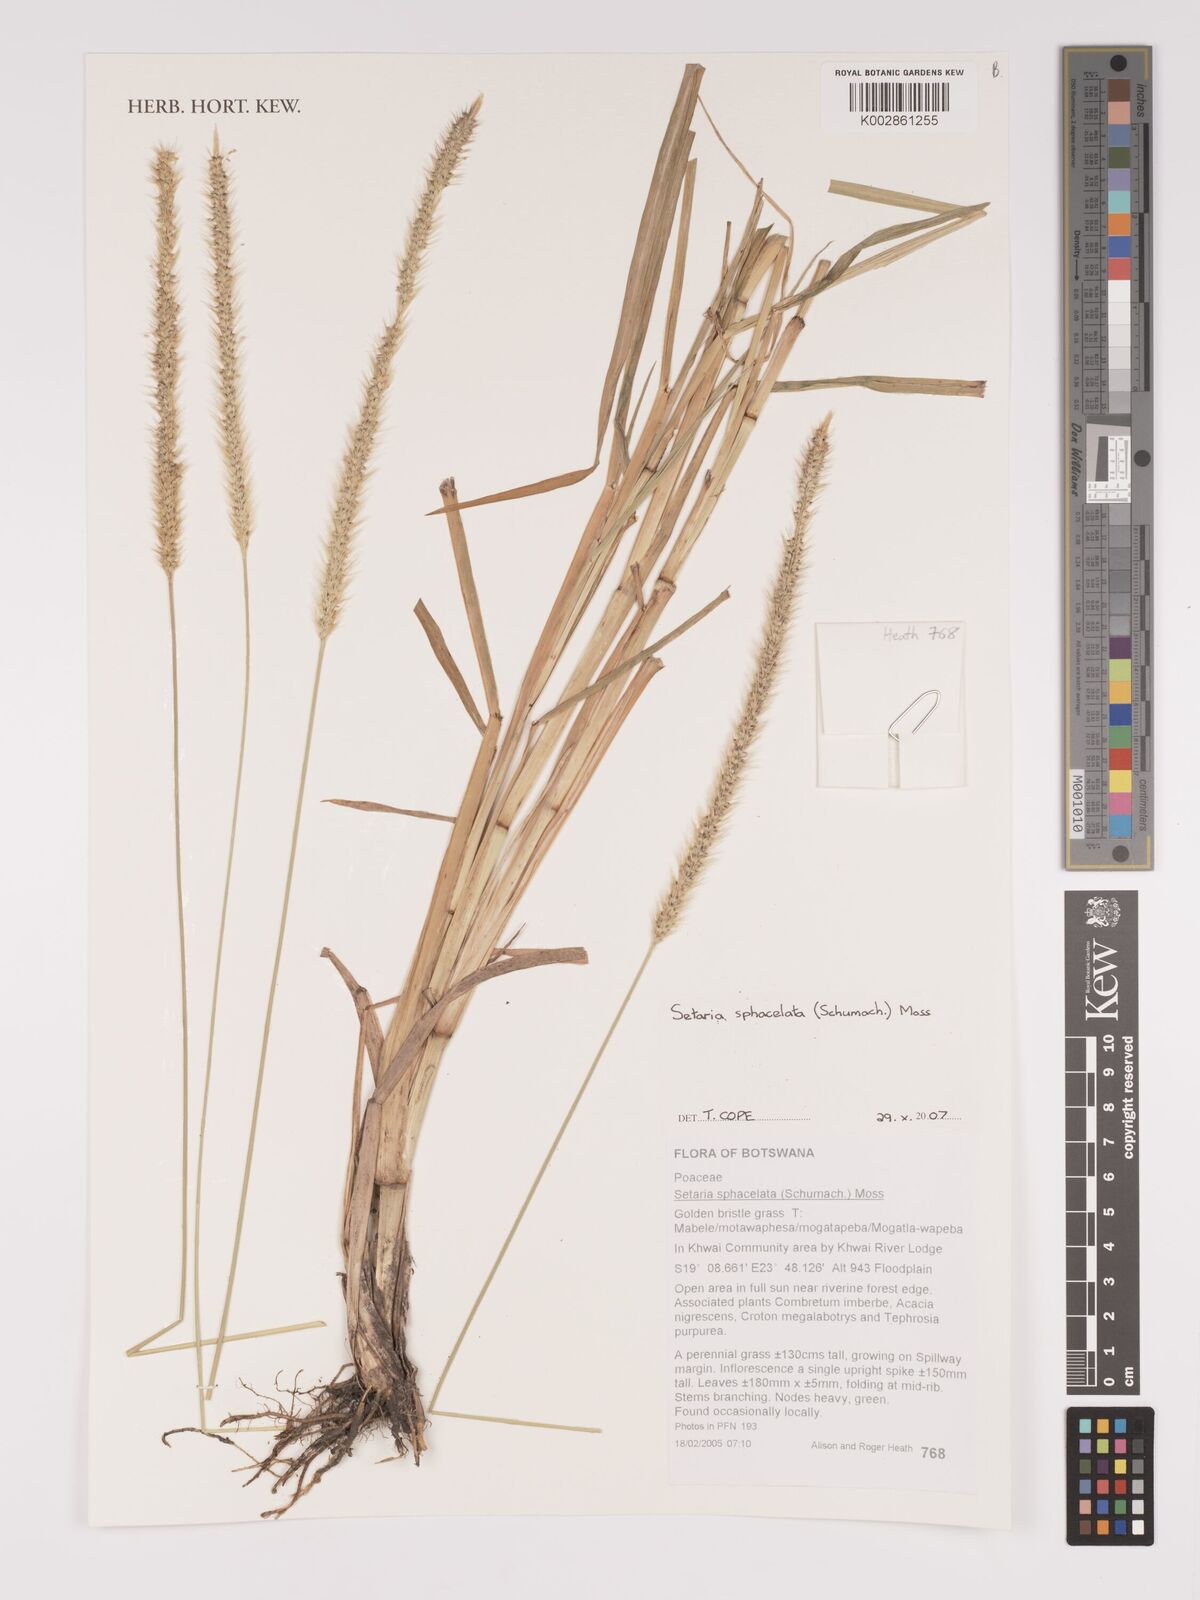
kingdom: Plantae
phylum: Tracheophyta
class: Liliopsida
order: Poales
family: Poaceae
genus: Setaria
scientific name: Setaria sphacelata
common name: African bristlegrass
